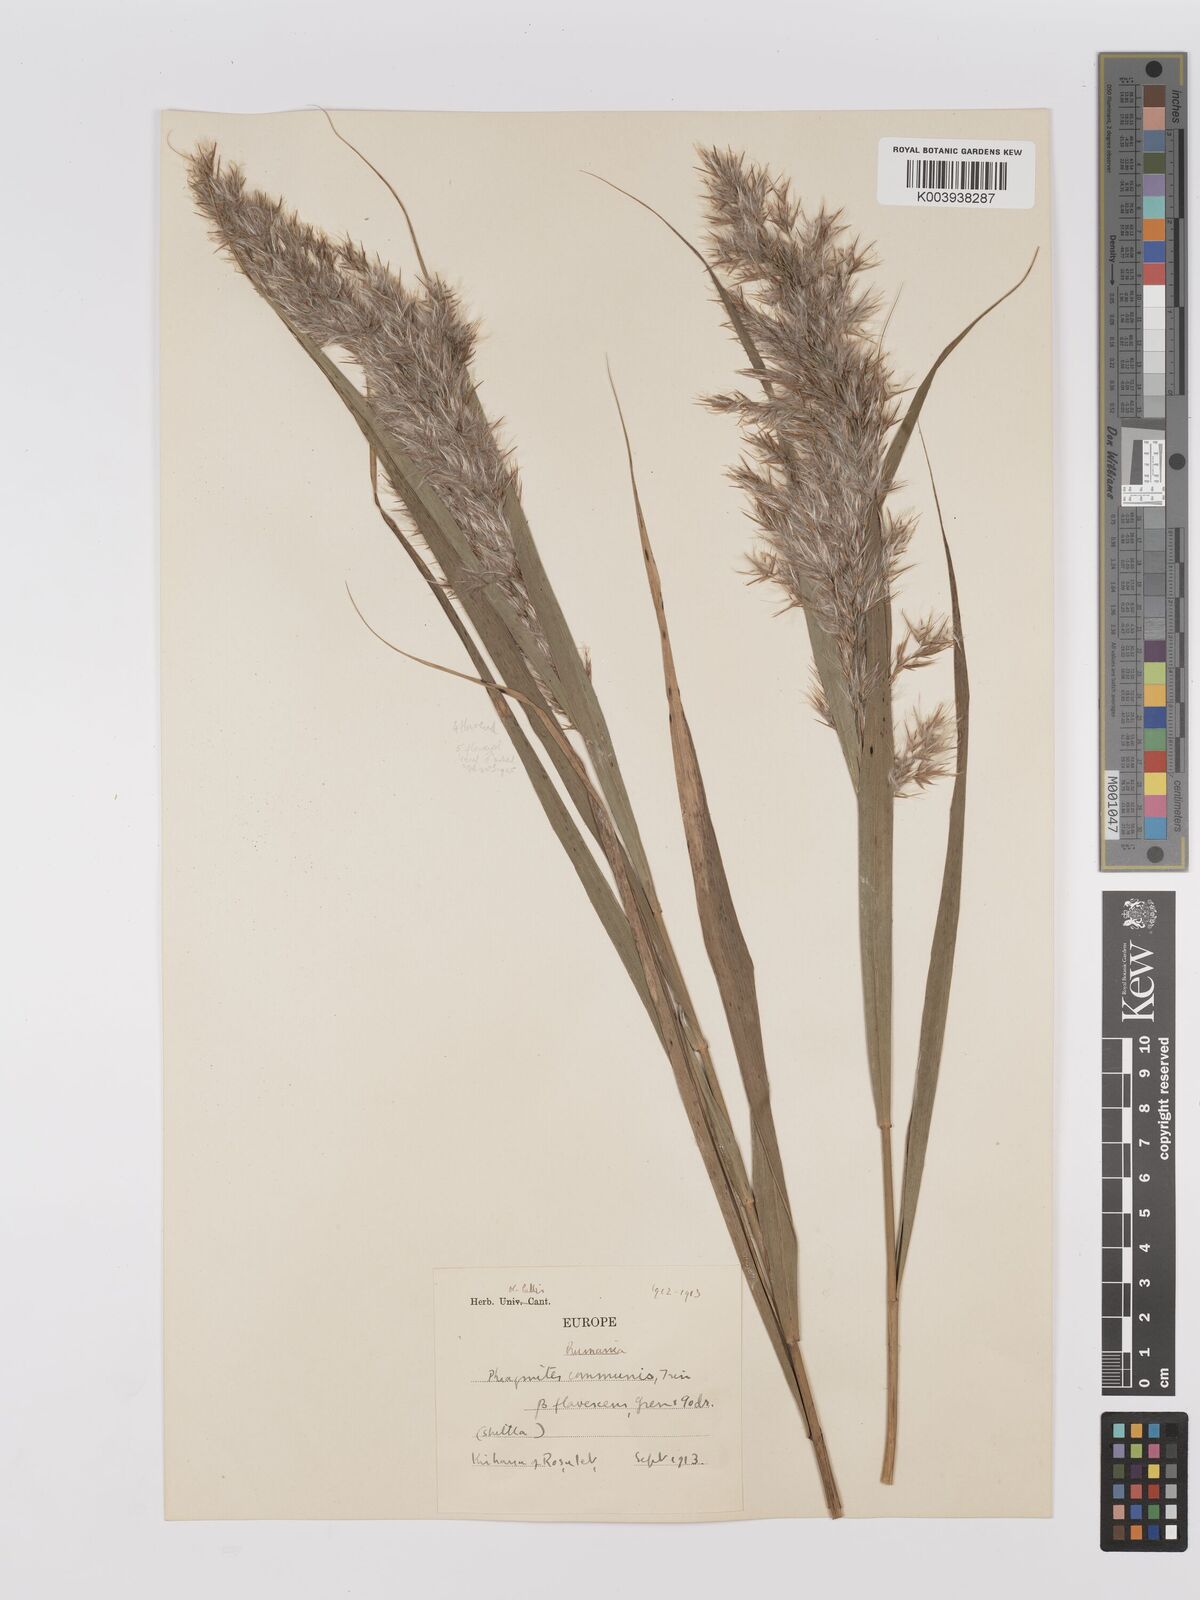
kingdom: Plantae
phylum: Tracheophyta
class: Liliopsida
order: Poales
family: Poaceae
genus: Phragmites
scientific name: Phragmites australis
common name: Common reed
